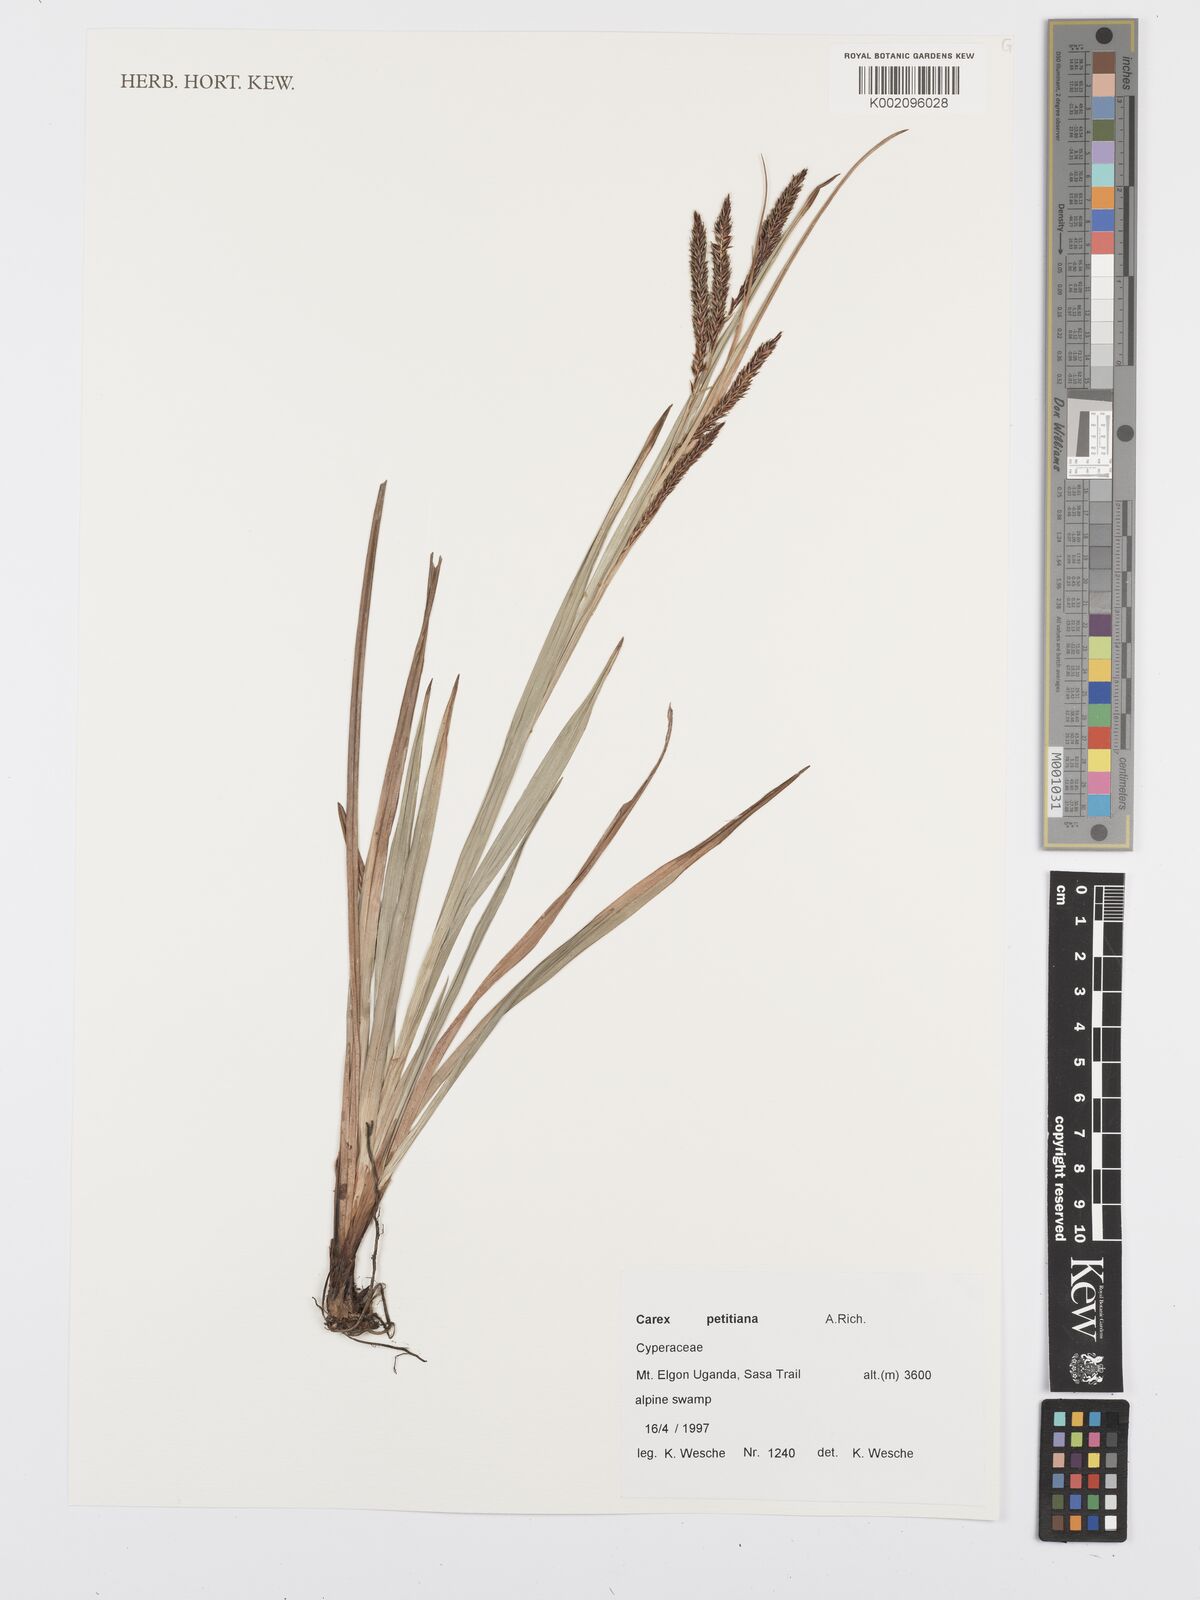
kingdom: Plantae
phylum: Tracheophyta
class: Liliopsida
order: Poales
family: Cyperaceae
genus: Carex
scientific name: Carex petitiana
